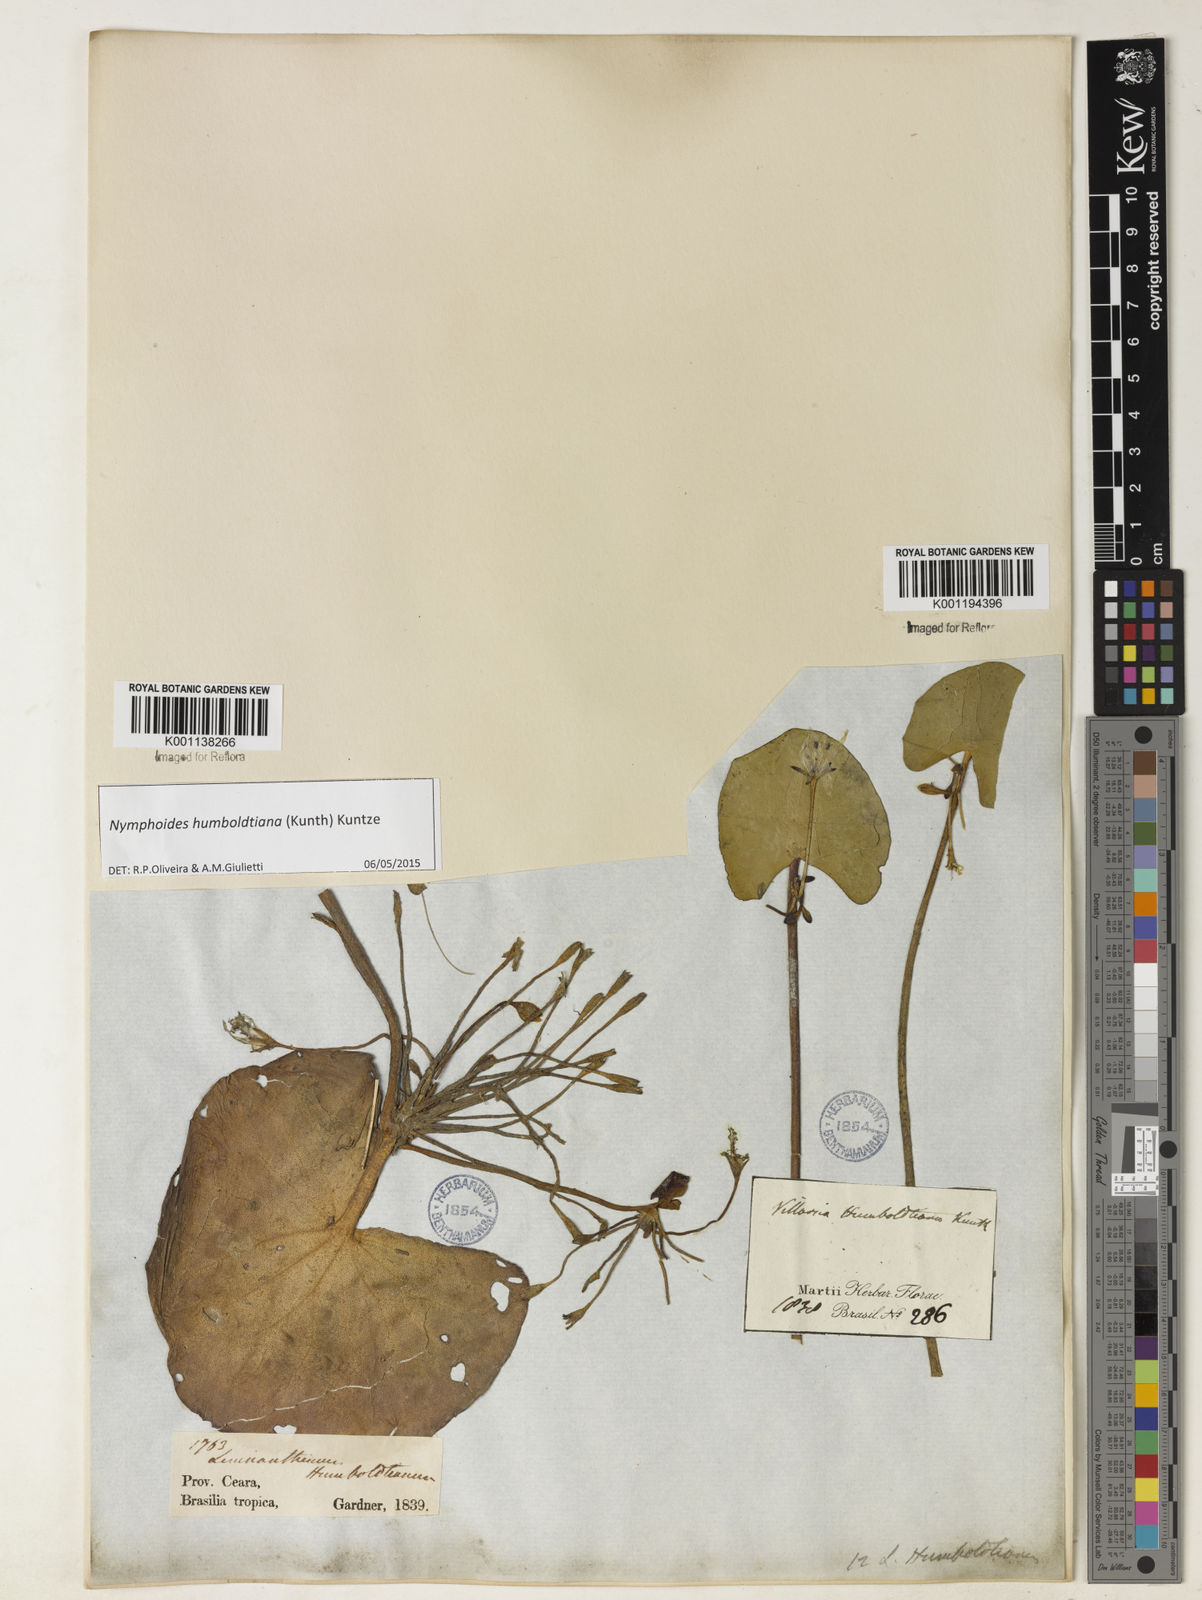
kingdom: Plantae
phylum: Tracheophyta
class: Magnoliopsida
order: Asterales
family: Menyanthaceae
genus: Nymphoides
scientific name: Nymphoides humboldtiana
